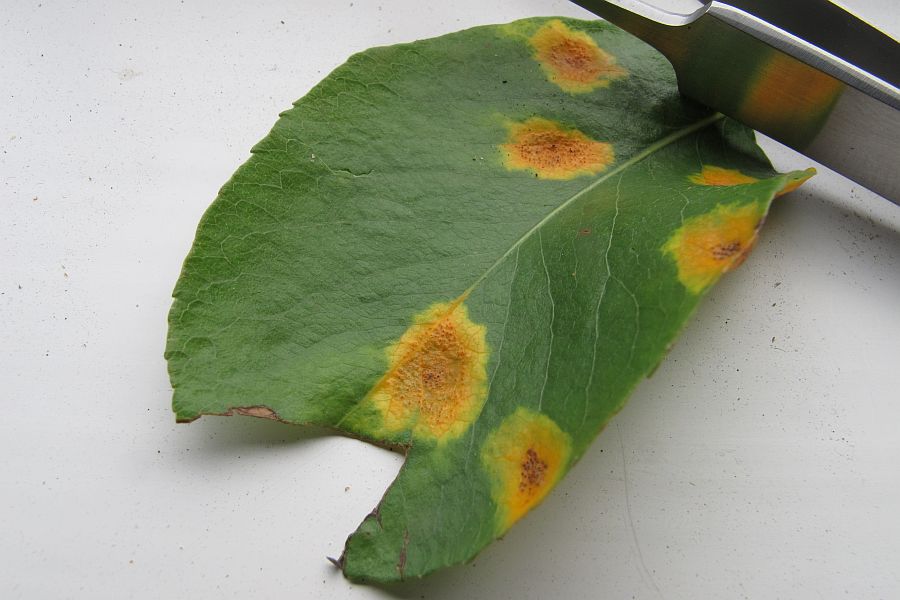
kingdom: Fungi
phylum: Basidiomycota
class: Pucciniomycetes
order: Pucciniales
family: Gymnosporangiaceae
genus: Gymnosporangium
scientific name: Gymnosporangium sabinae
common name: pæregitter-bævrerust
